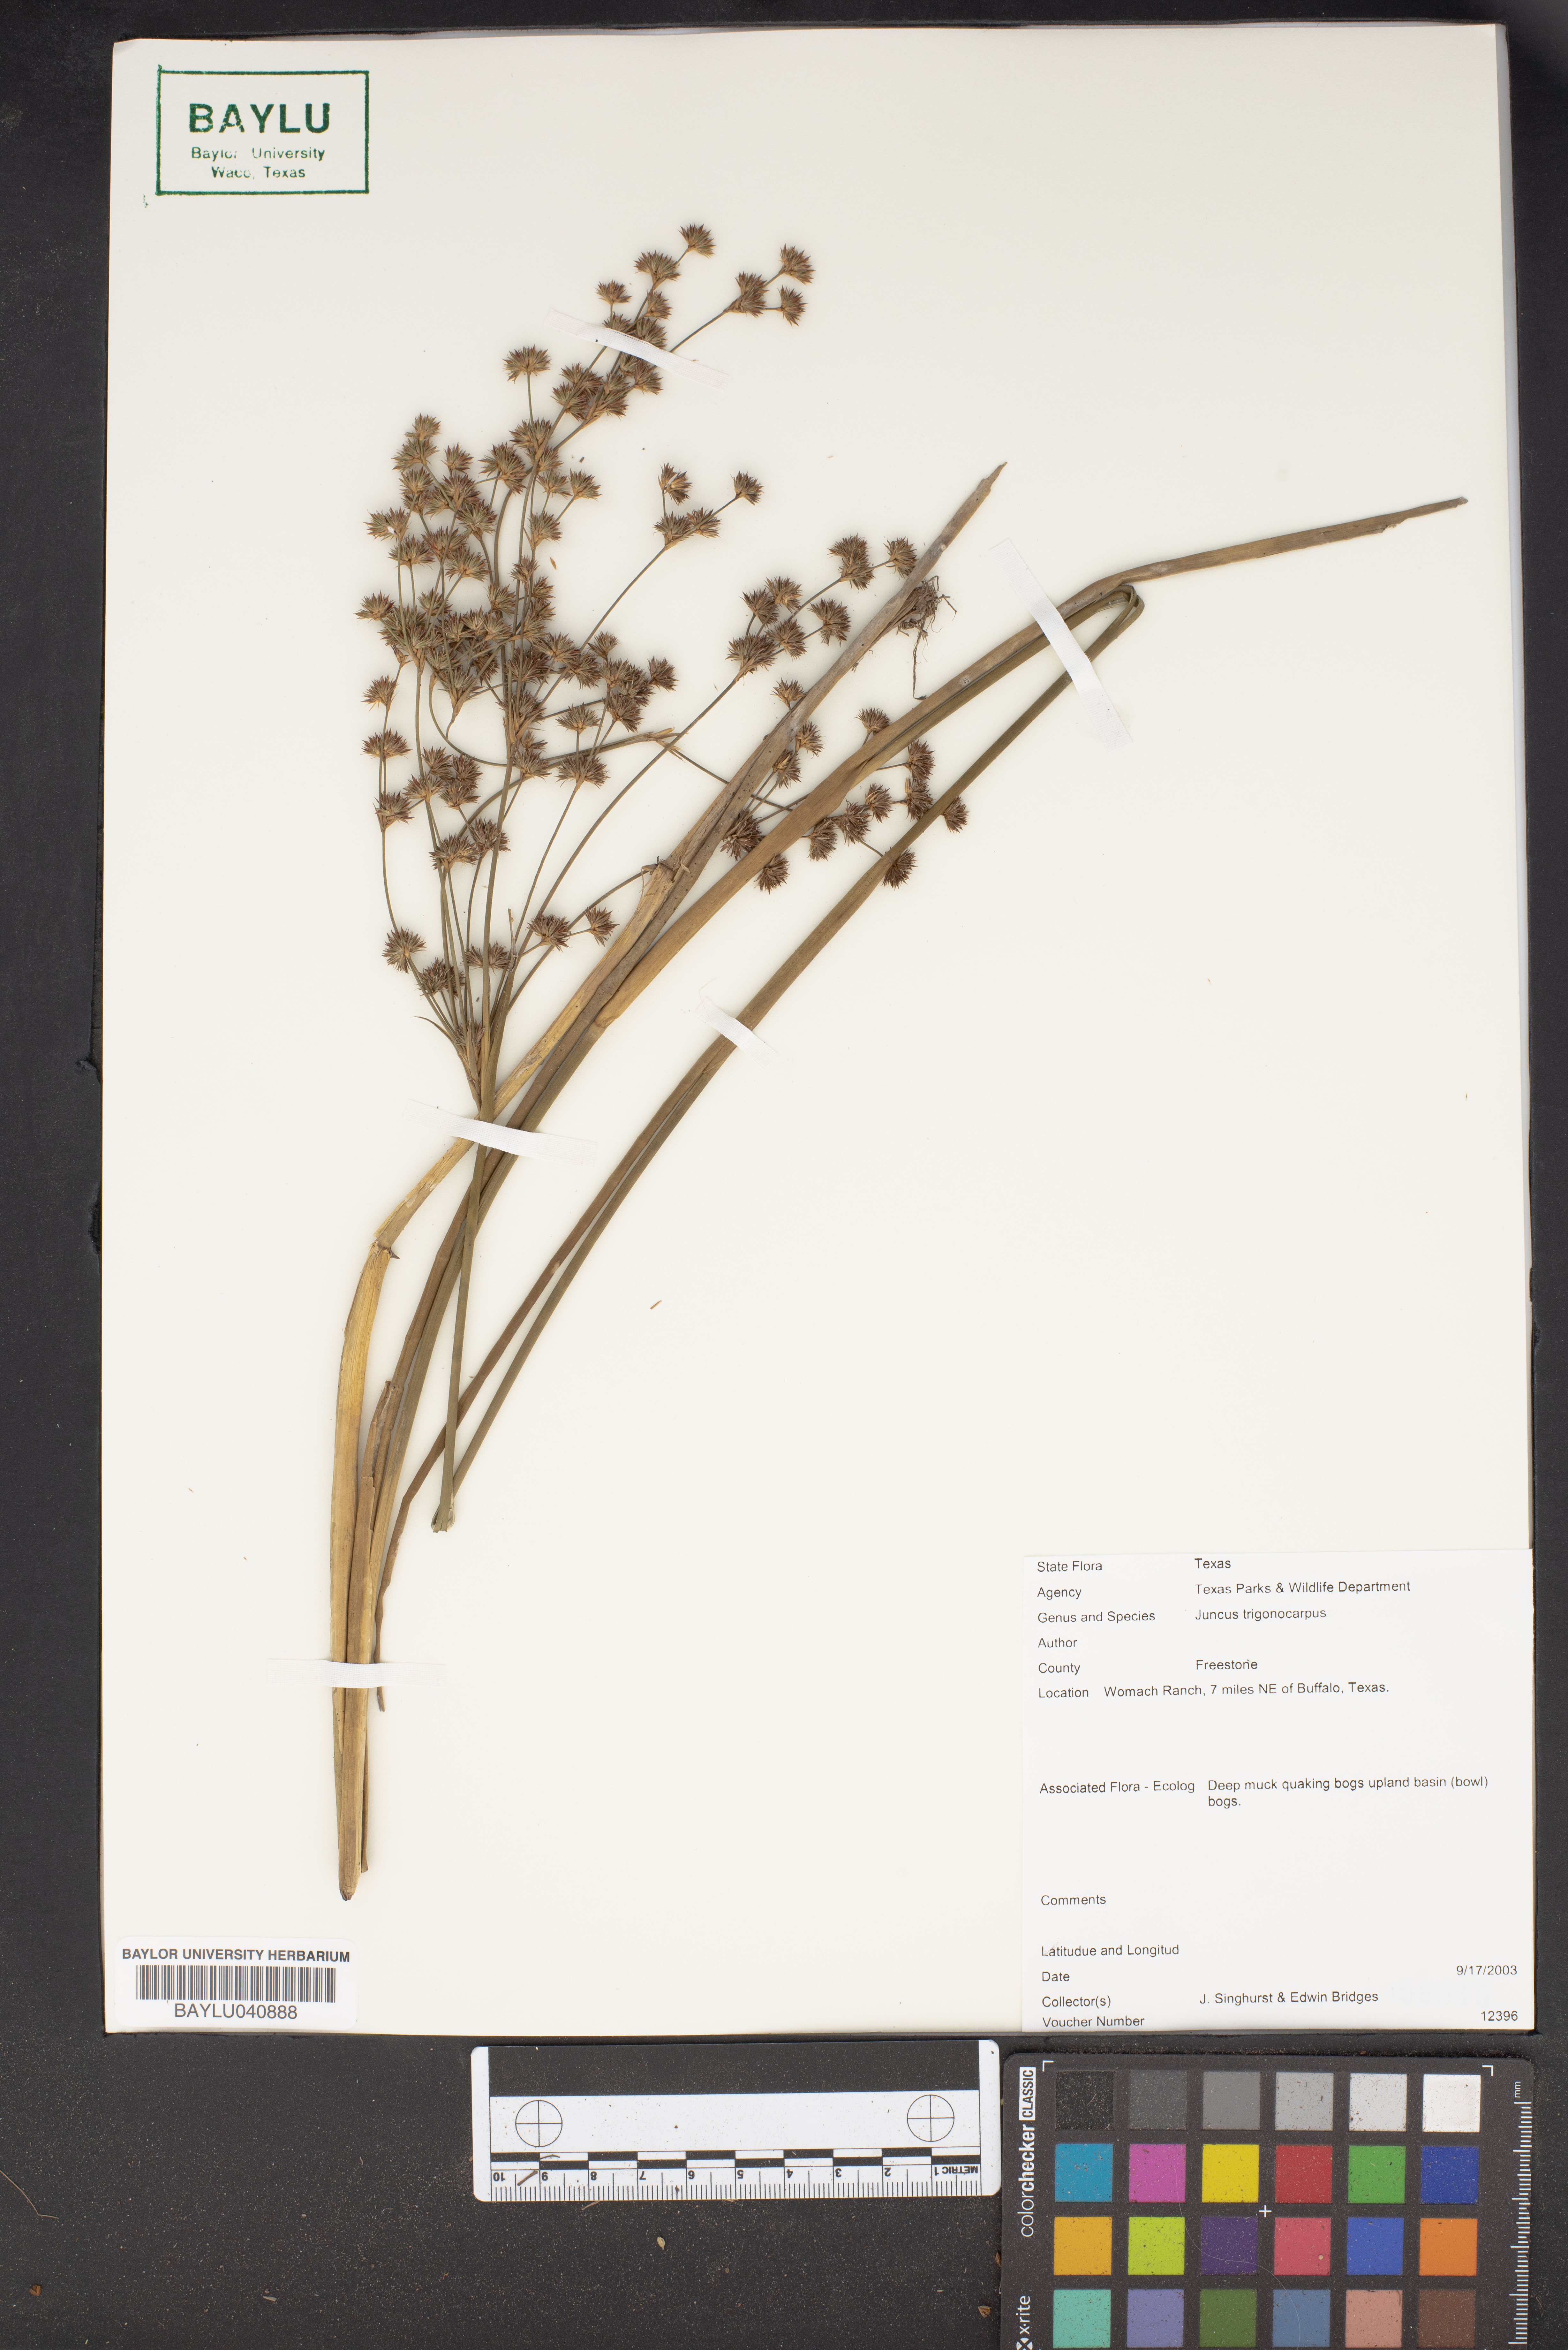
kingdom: Plantae
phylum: Tracheophyta
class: Liliopsida
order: Poales
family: Juncaceae
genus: Juncus
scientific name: Juncus trigonocarpus
